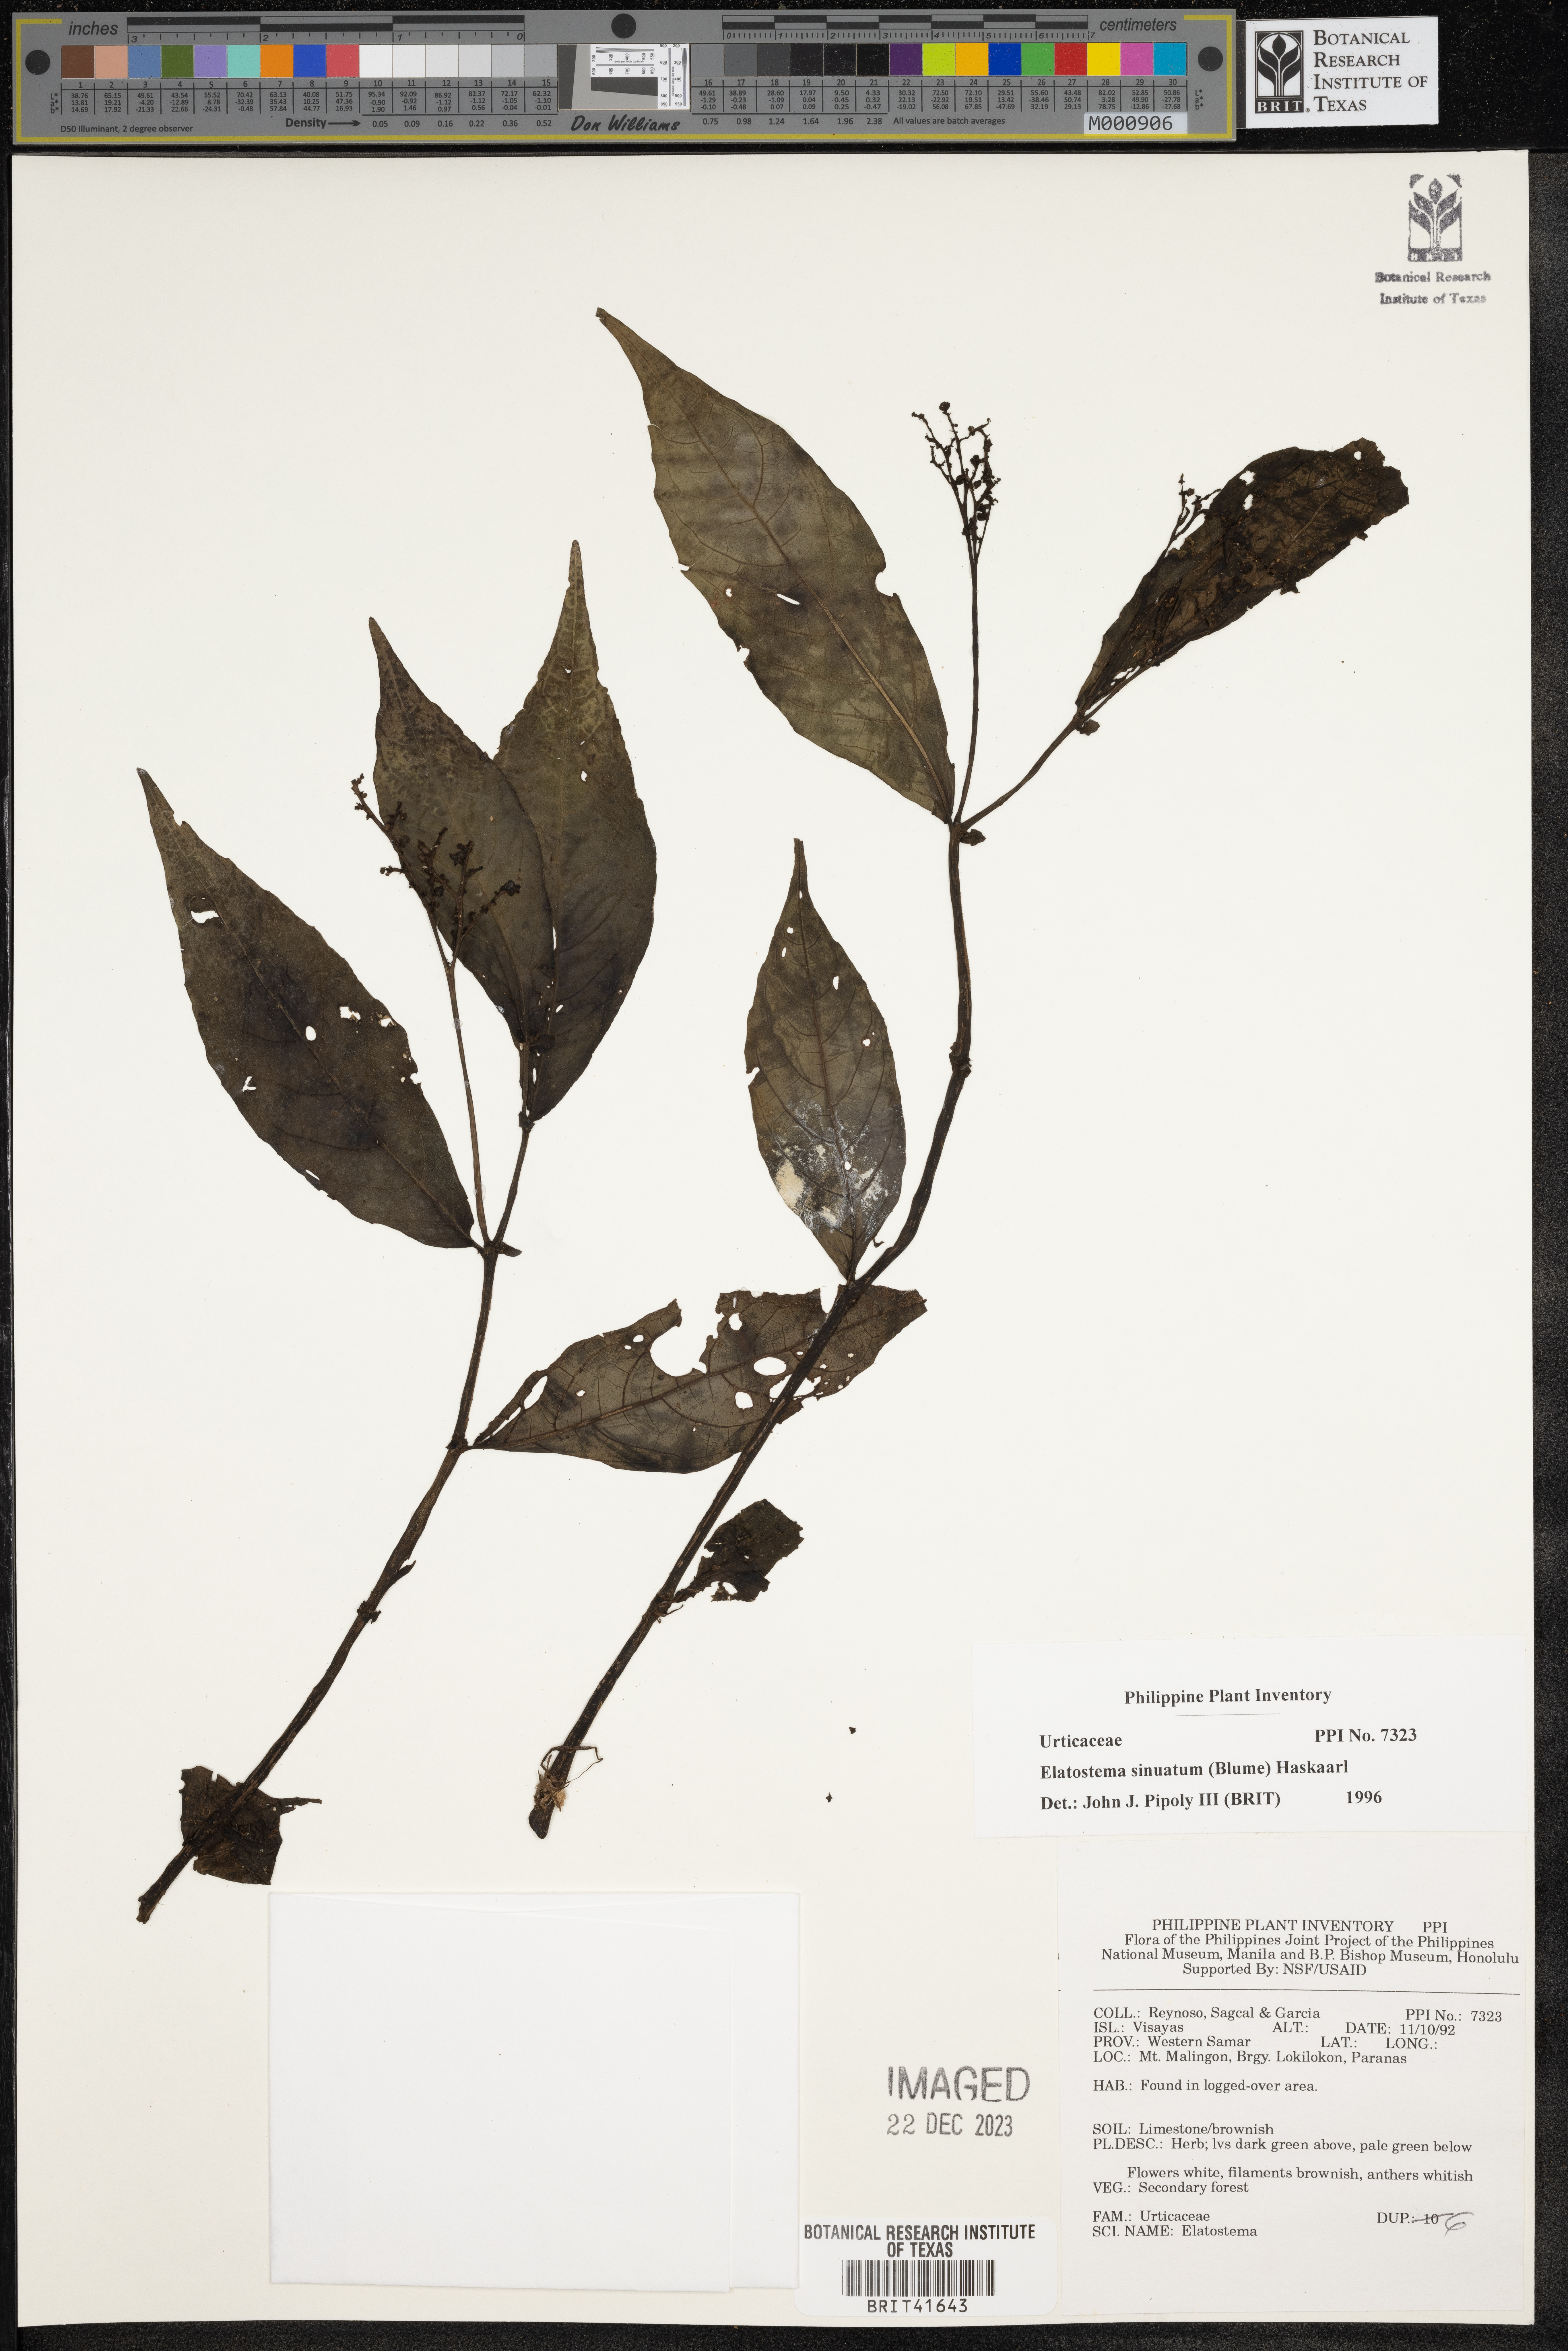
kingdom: Plantae
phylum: Tracheophyta
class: Magnoliopsida
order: Rosales
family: Urticaceae
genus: Elatostema
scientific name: Elatostema sinuatum
